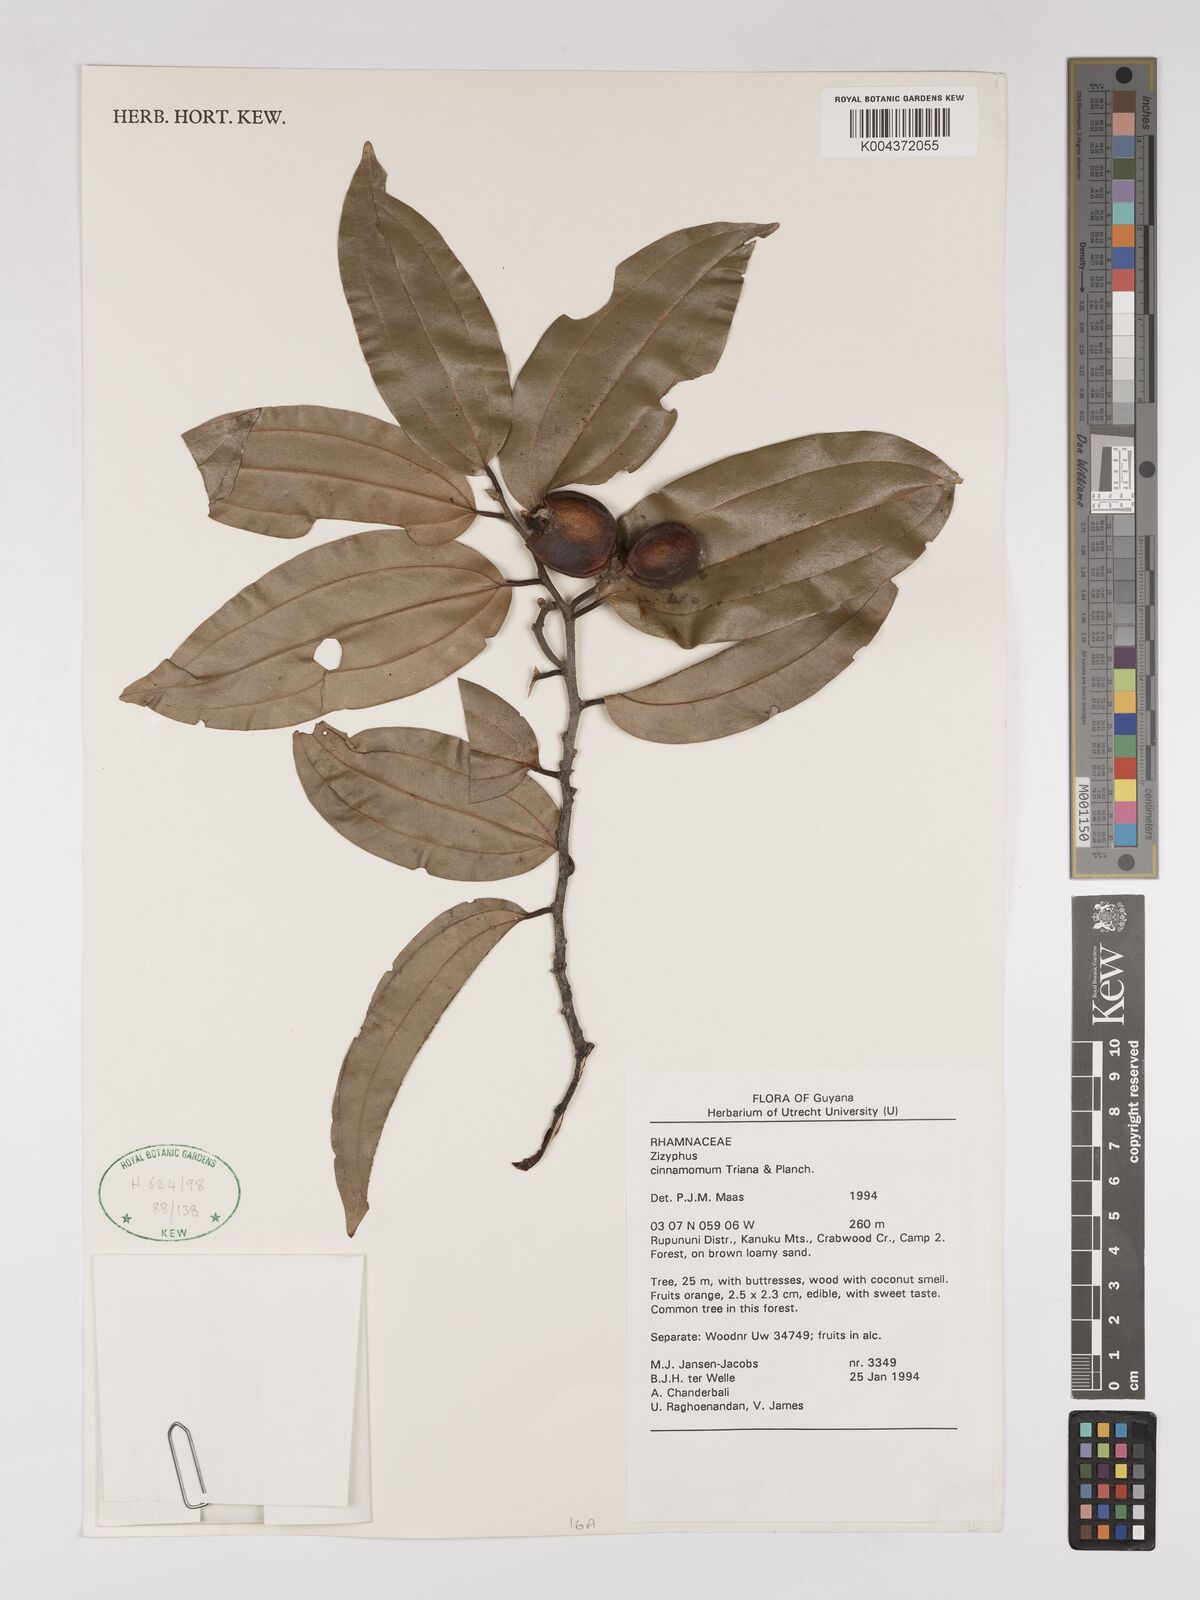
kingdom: Plantae
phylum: Tracheophyta
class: Magnoliopsida
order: Rosales
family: Rhamnaceae
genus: Sarcomphalus
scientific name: Sarcomphalus cinnamomum
